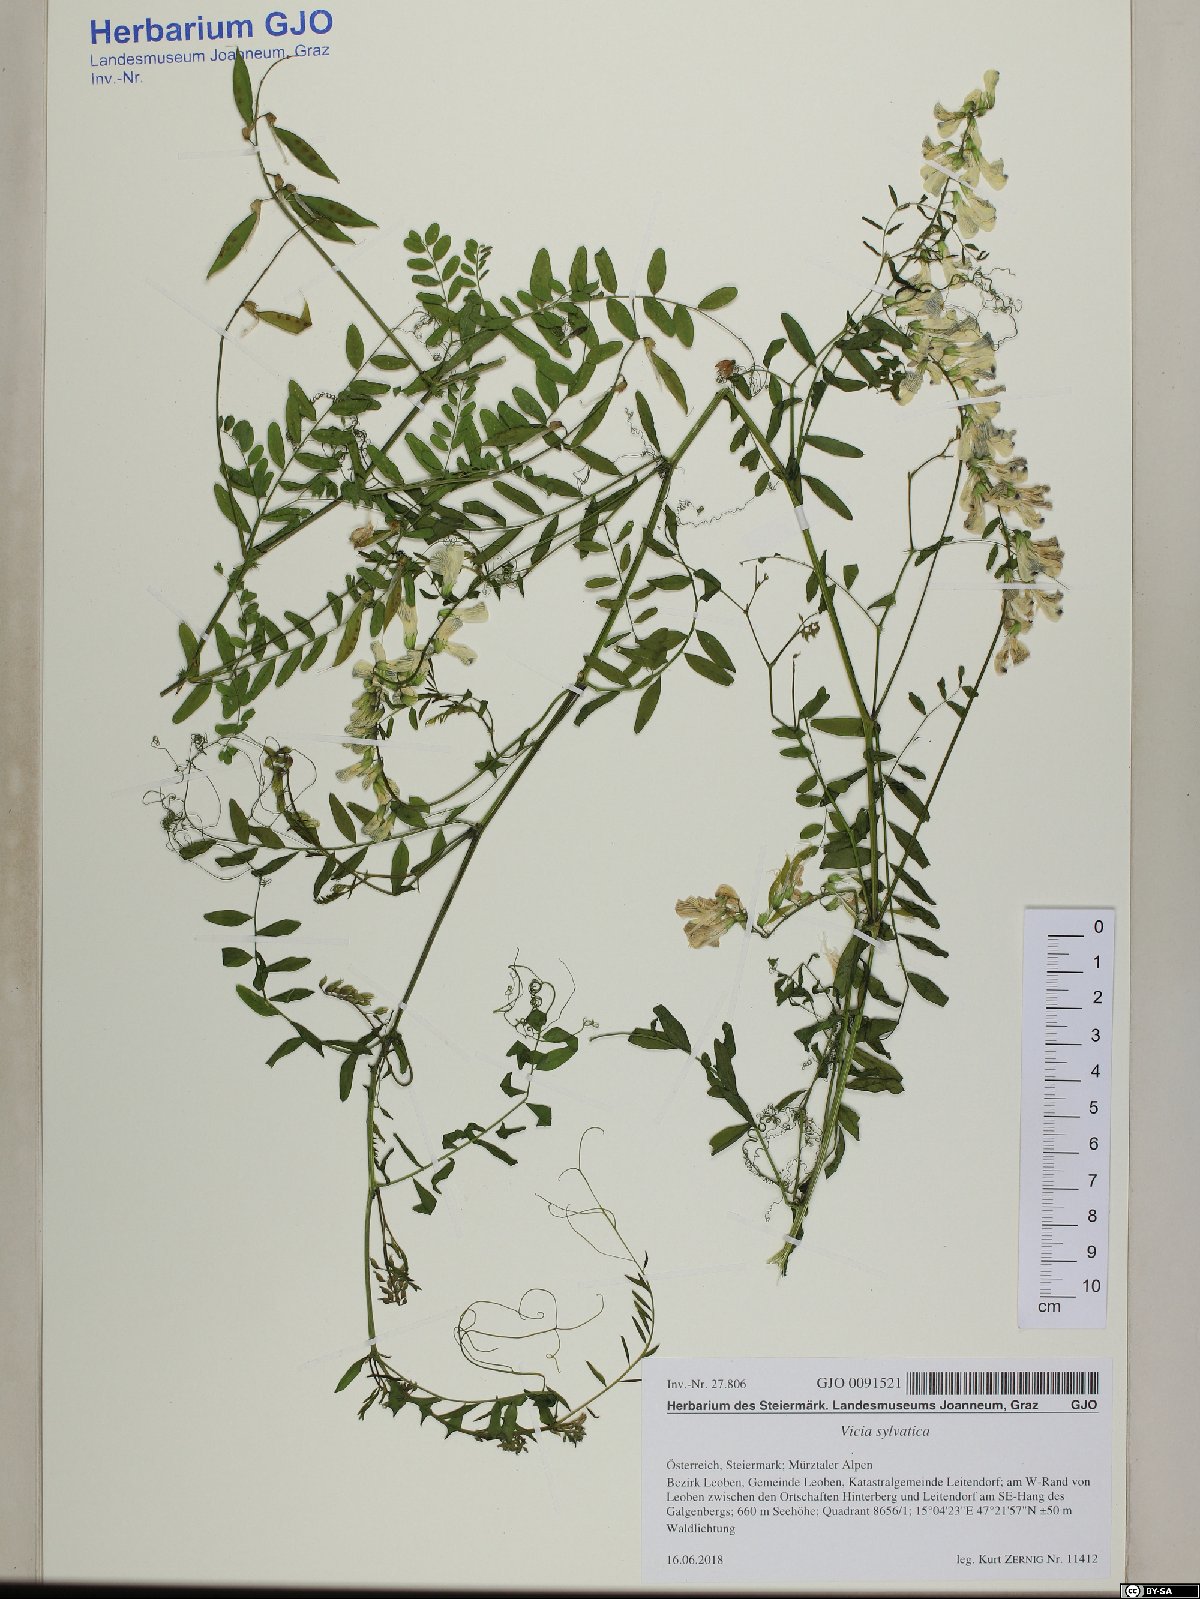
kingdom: Plantae
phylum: Tracheophyta
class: Magnoliopsida
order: Fabales
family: Fabaceae
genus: Vicia
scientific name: Vicia sylvatica
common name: Wood vetch
